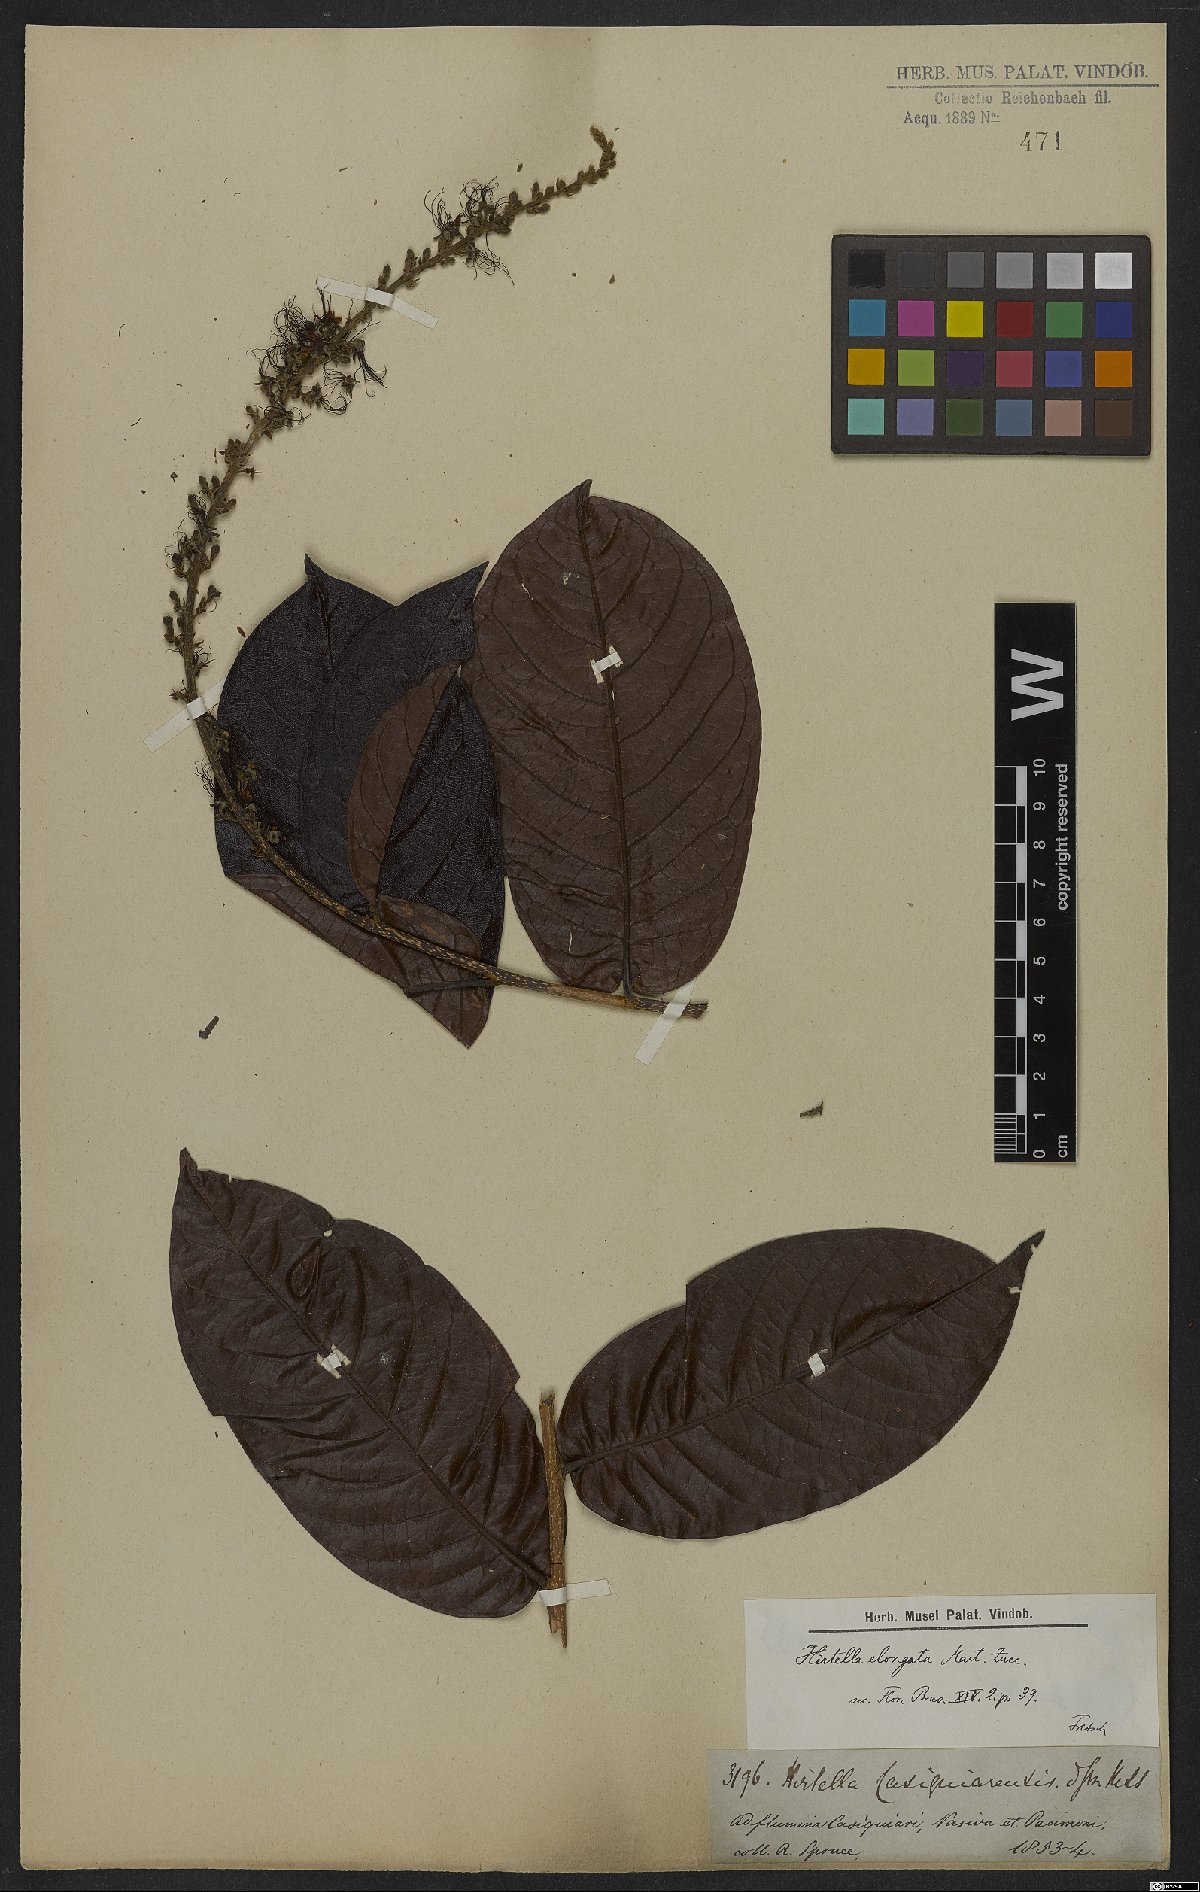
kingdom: Plantae
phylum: Tracheophyta
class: Magnoliopsida
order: Malpighiales
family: Chrysobalanaceae
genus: Hirtella
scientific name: Hirtella elongata
